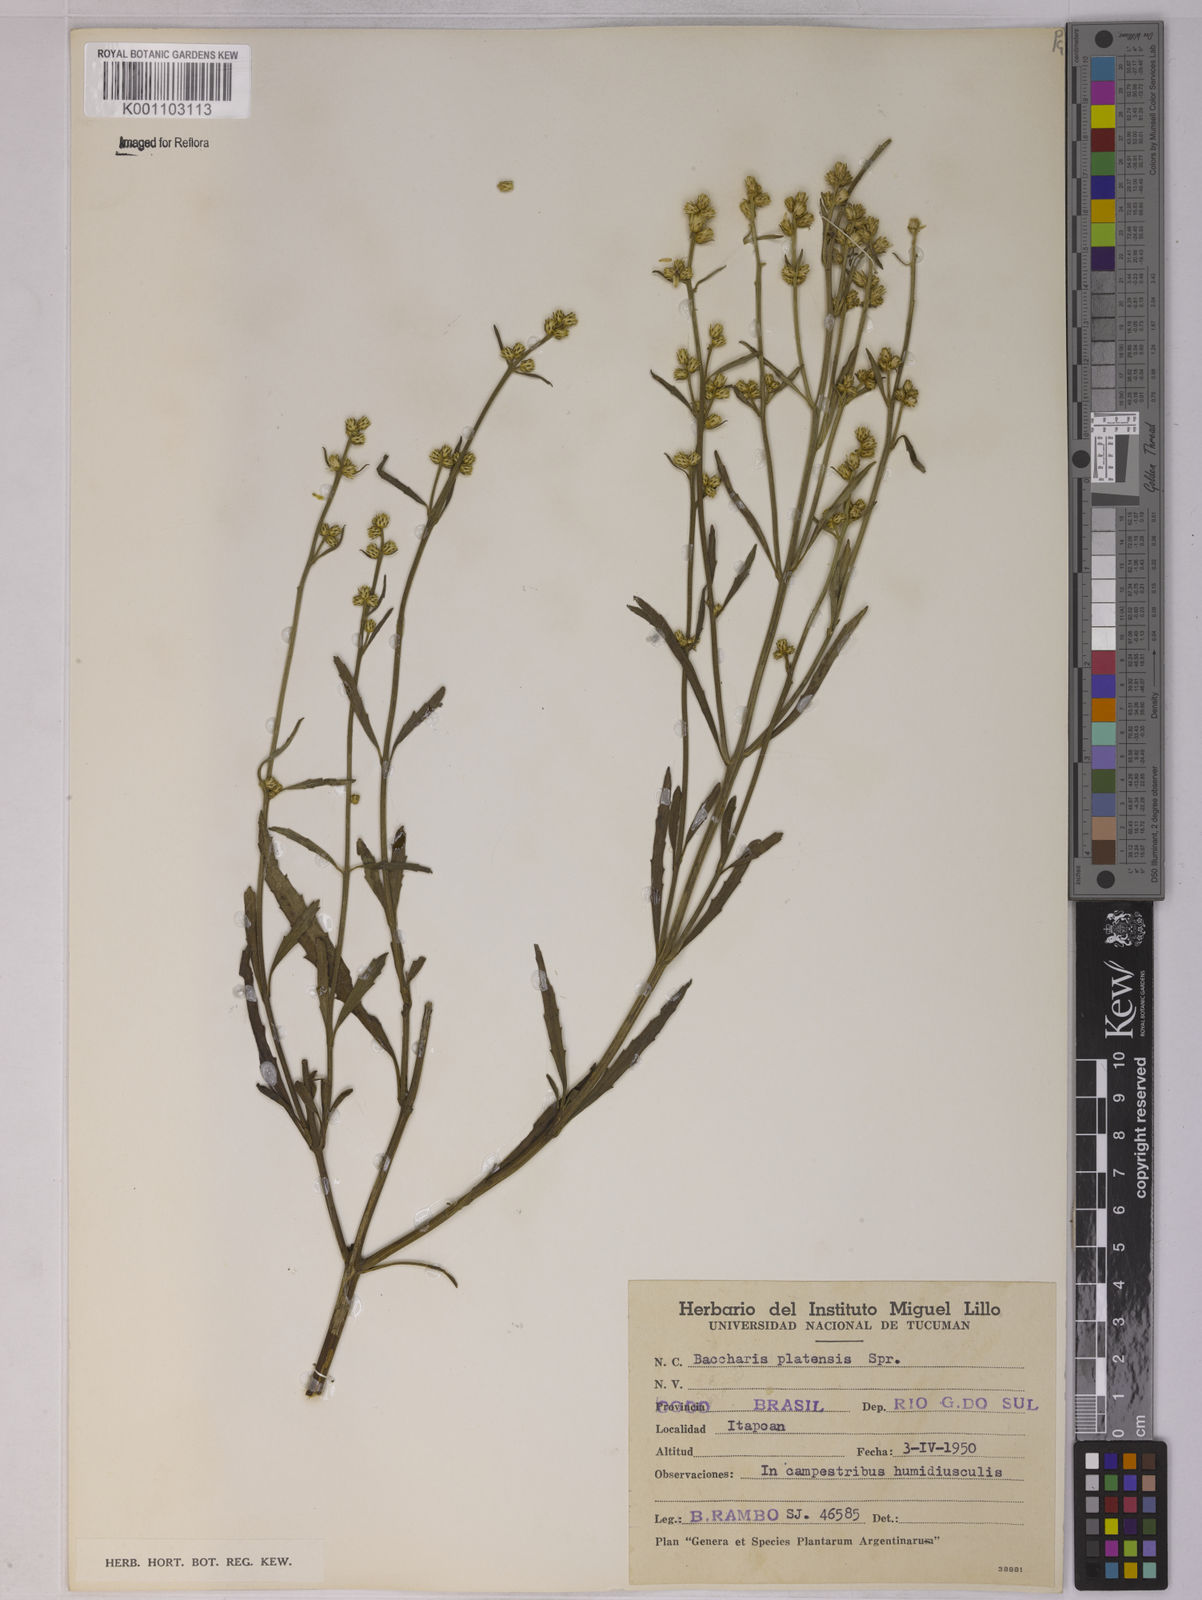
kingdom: Plantae
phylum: Tracheophyta
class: Magnoliopsida
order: Asterales
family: Asteraceae
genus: Baccharis
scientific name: Baccharis spicata
